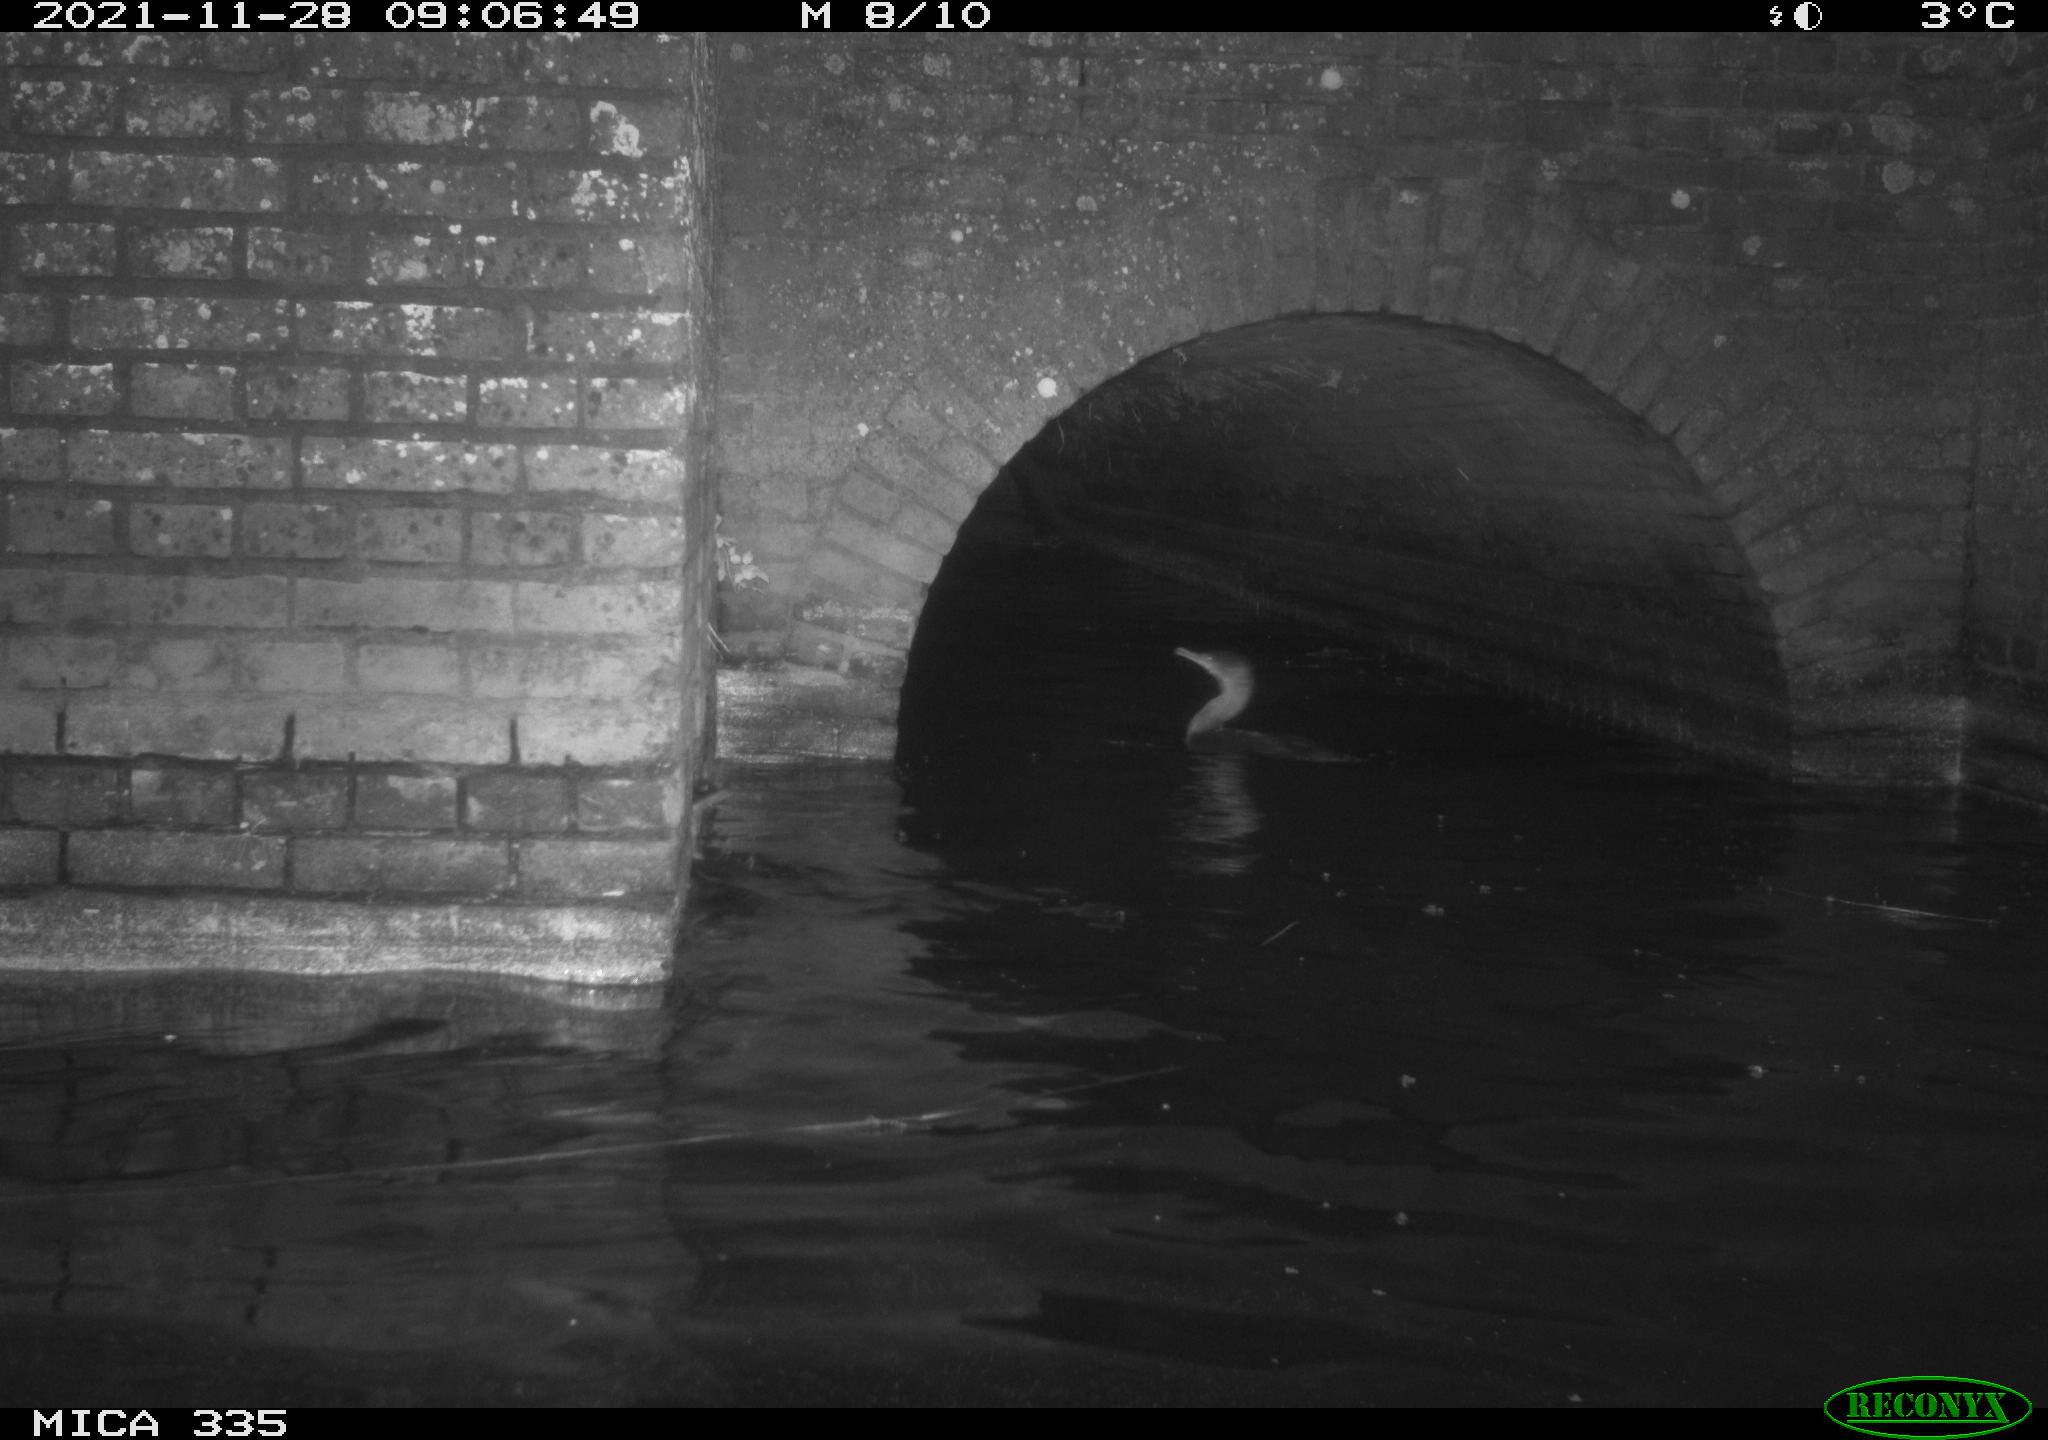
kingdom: Animalia
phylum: Chordata
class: Aves
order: Anseriformes
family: Anatidae
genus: Anas
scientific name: Anas platyrhynchos
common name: Mallard
